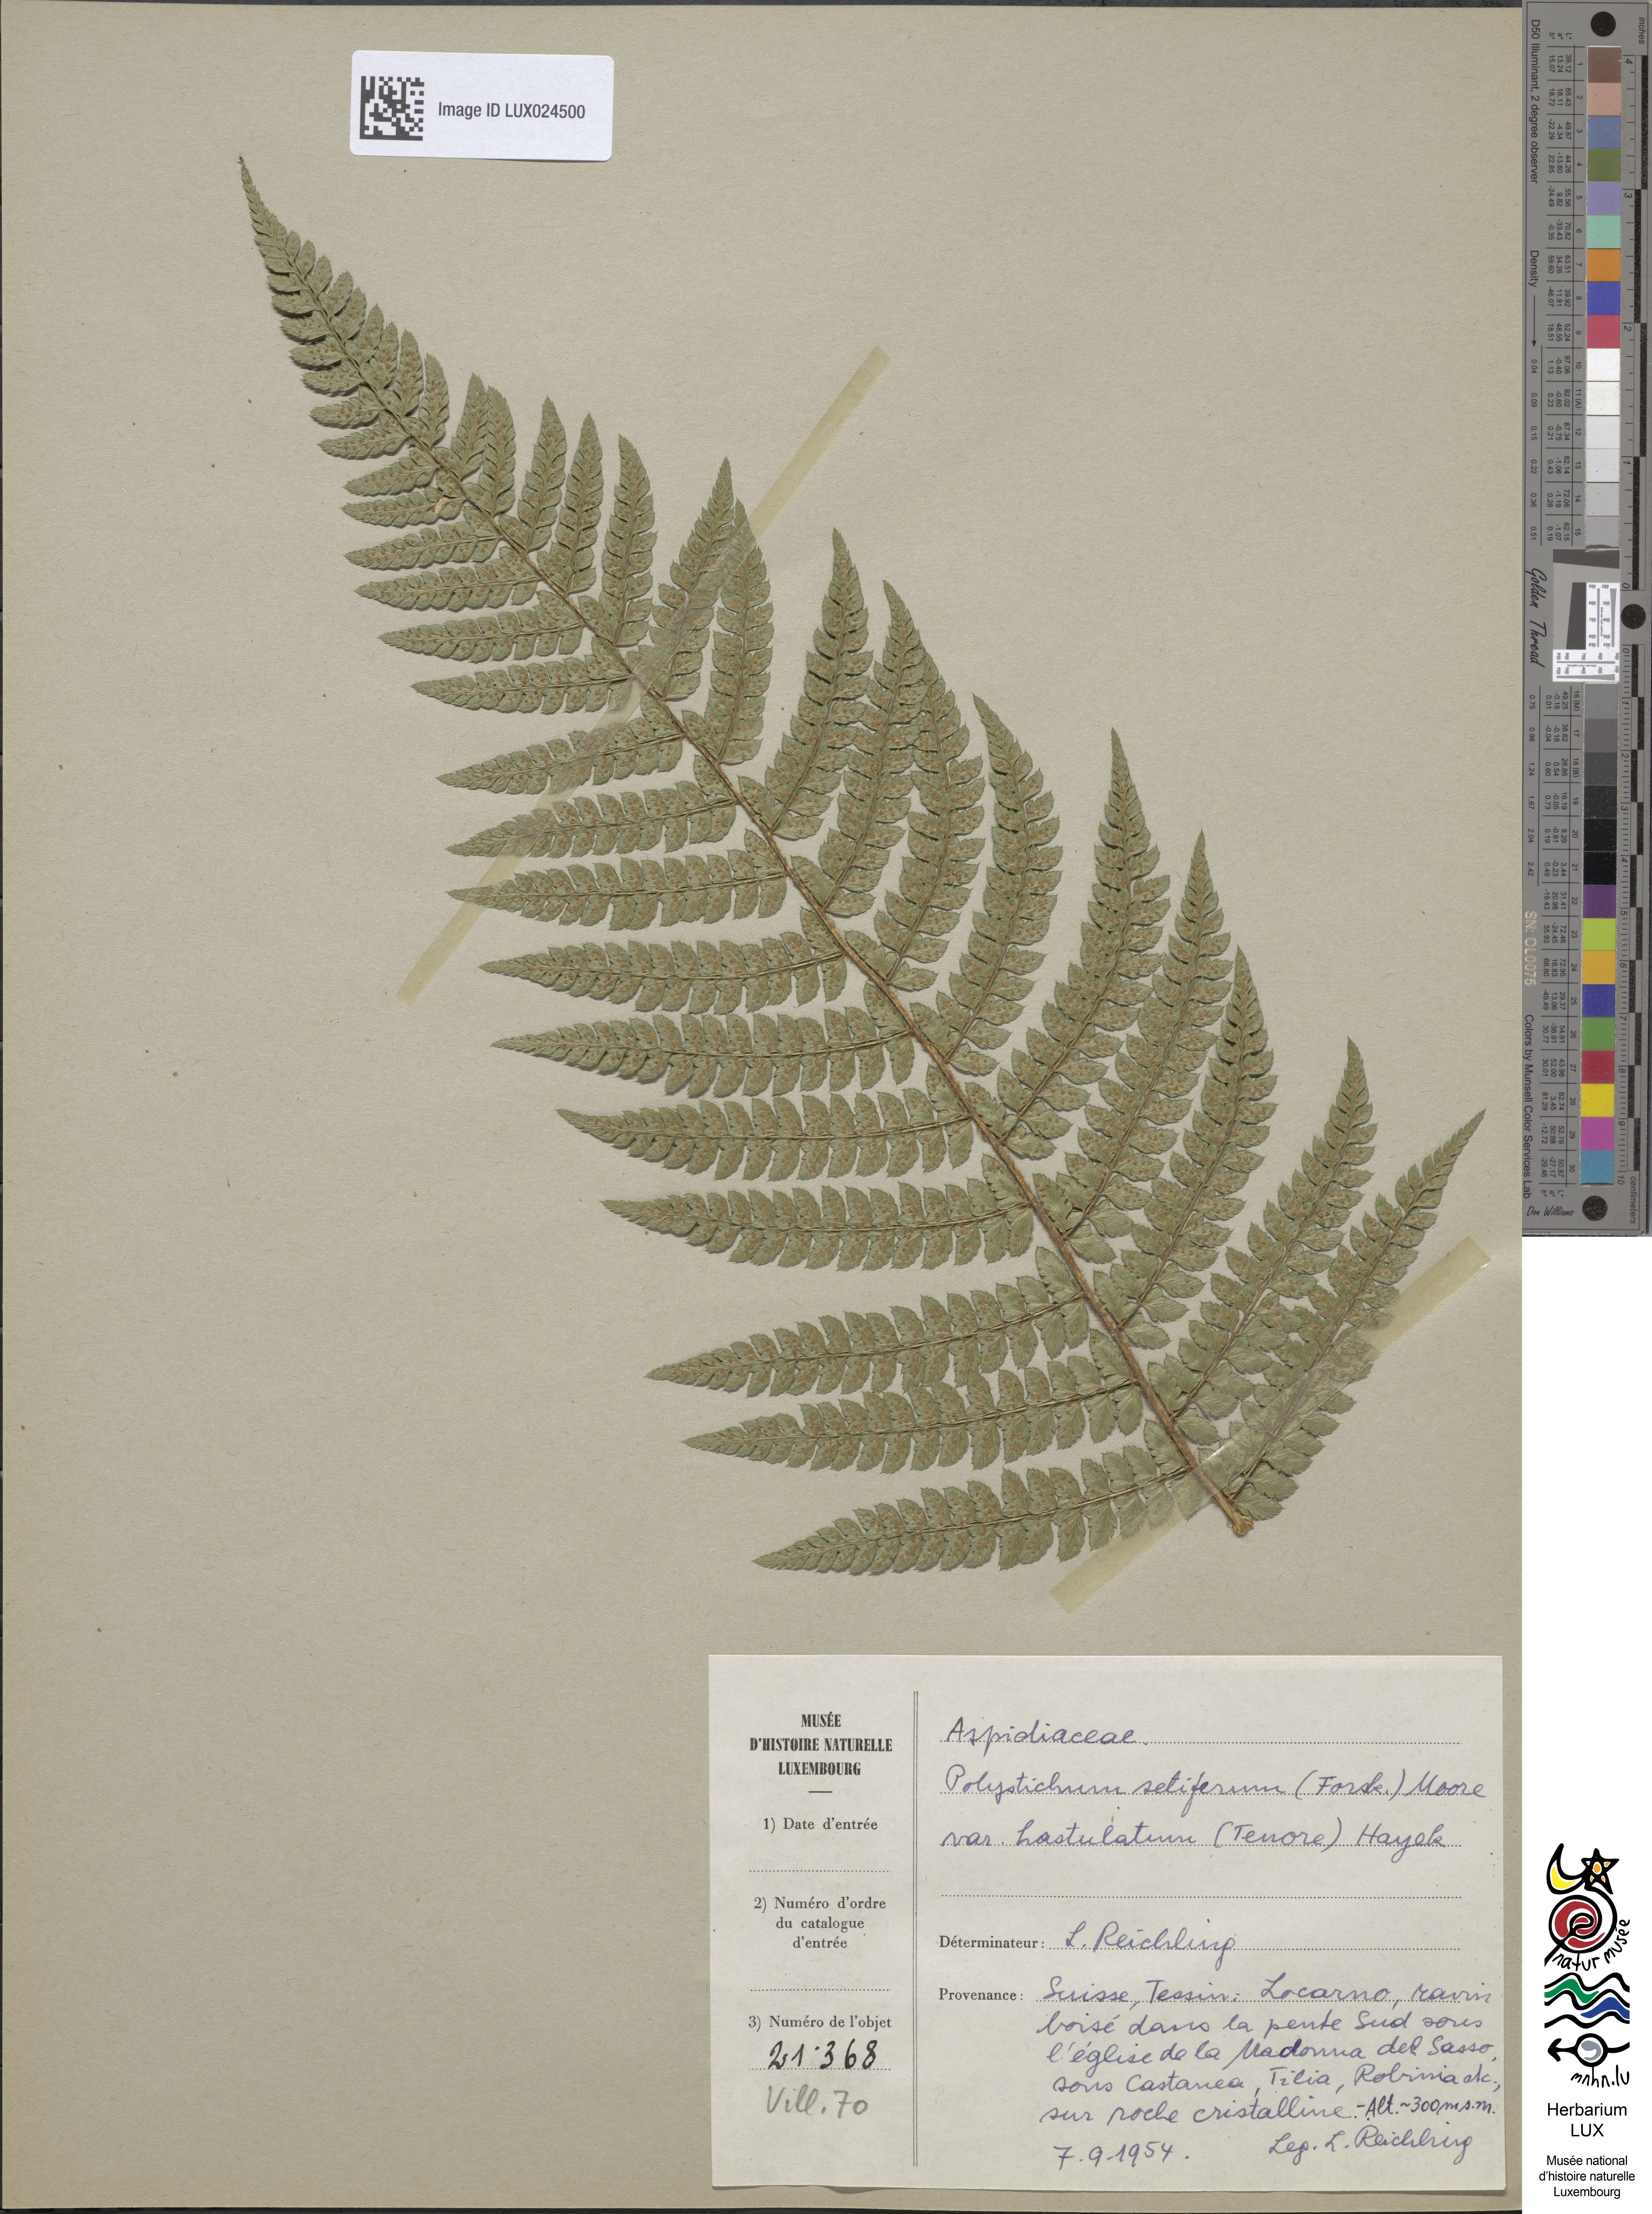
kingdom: Plantae
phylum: Tracheophyta
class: Polypodiopsida
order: Polypodiales
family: Dryopteridaceae
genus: Polystichum
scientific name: Polystichum setiferum
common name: Soft shield-fern
